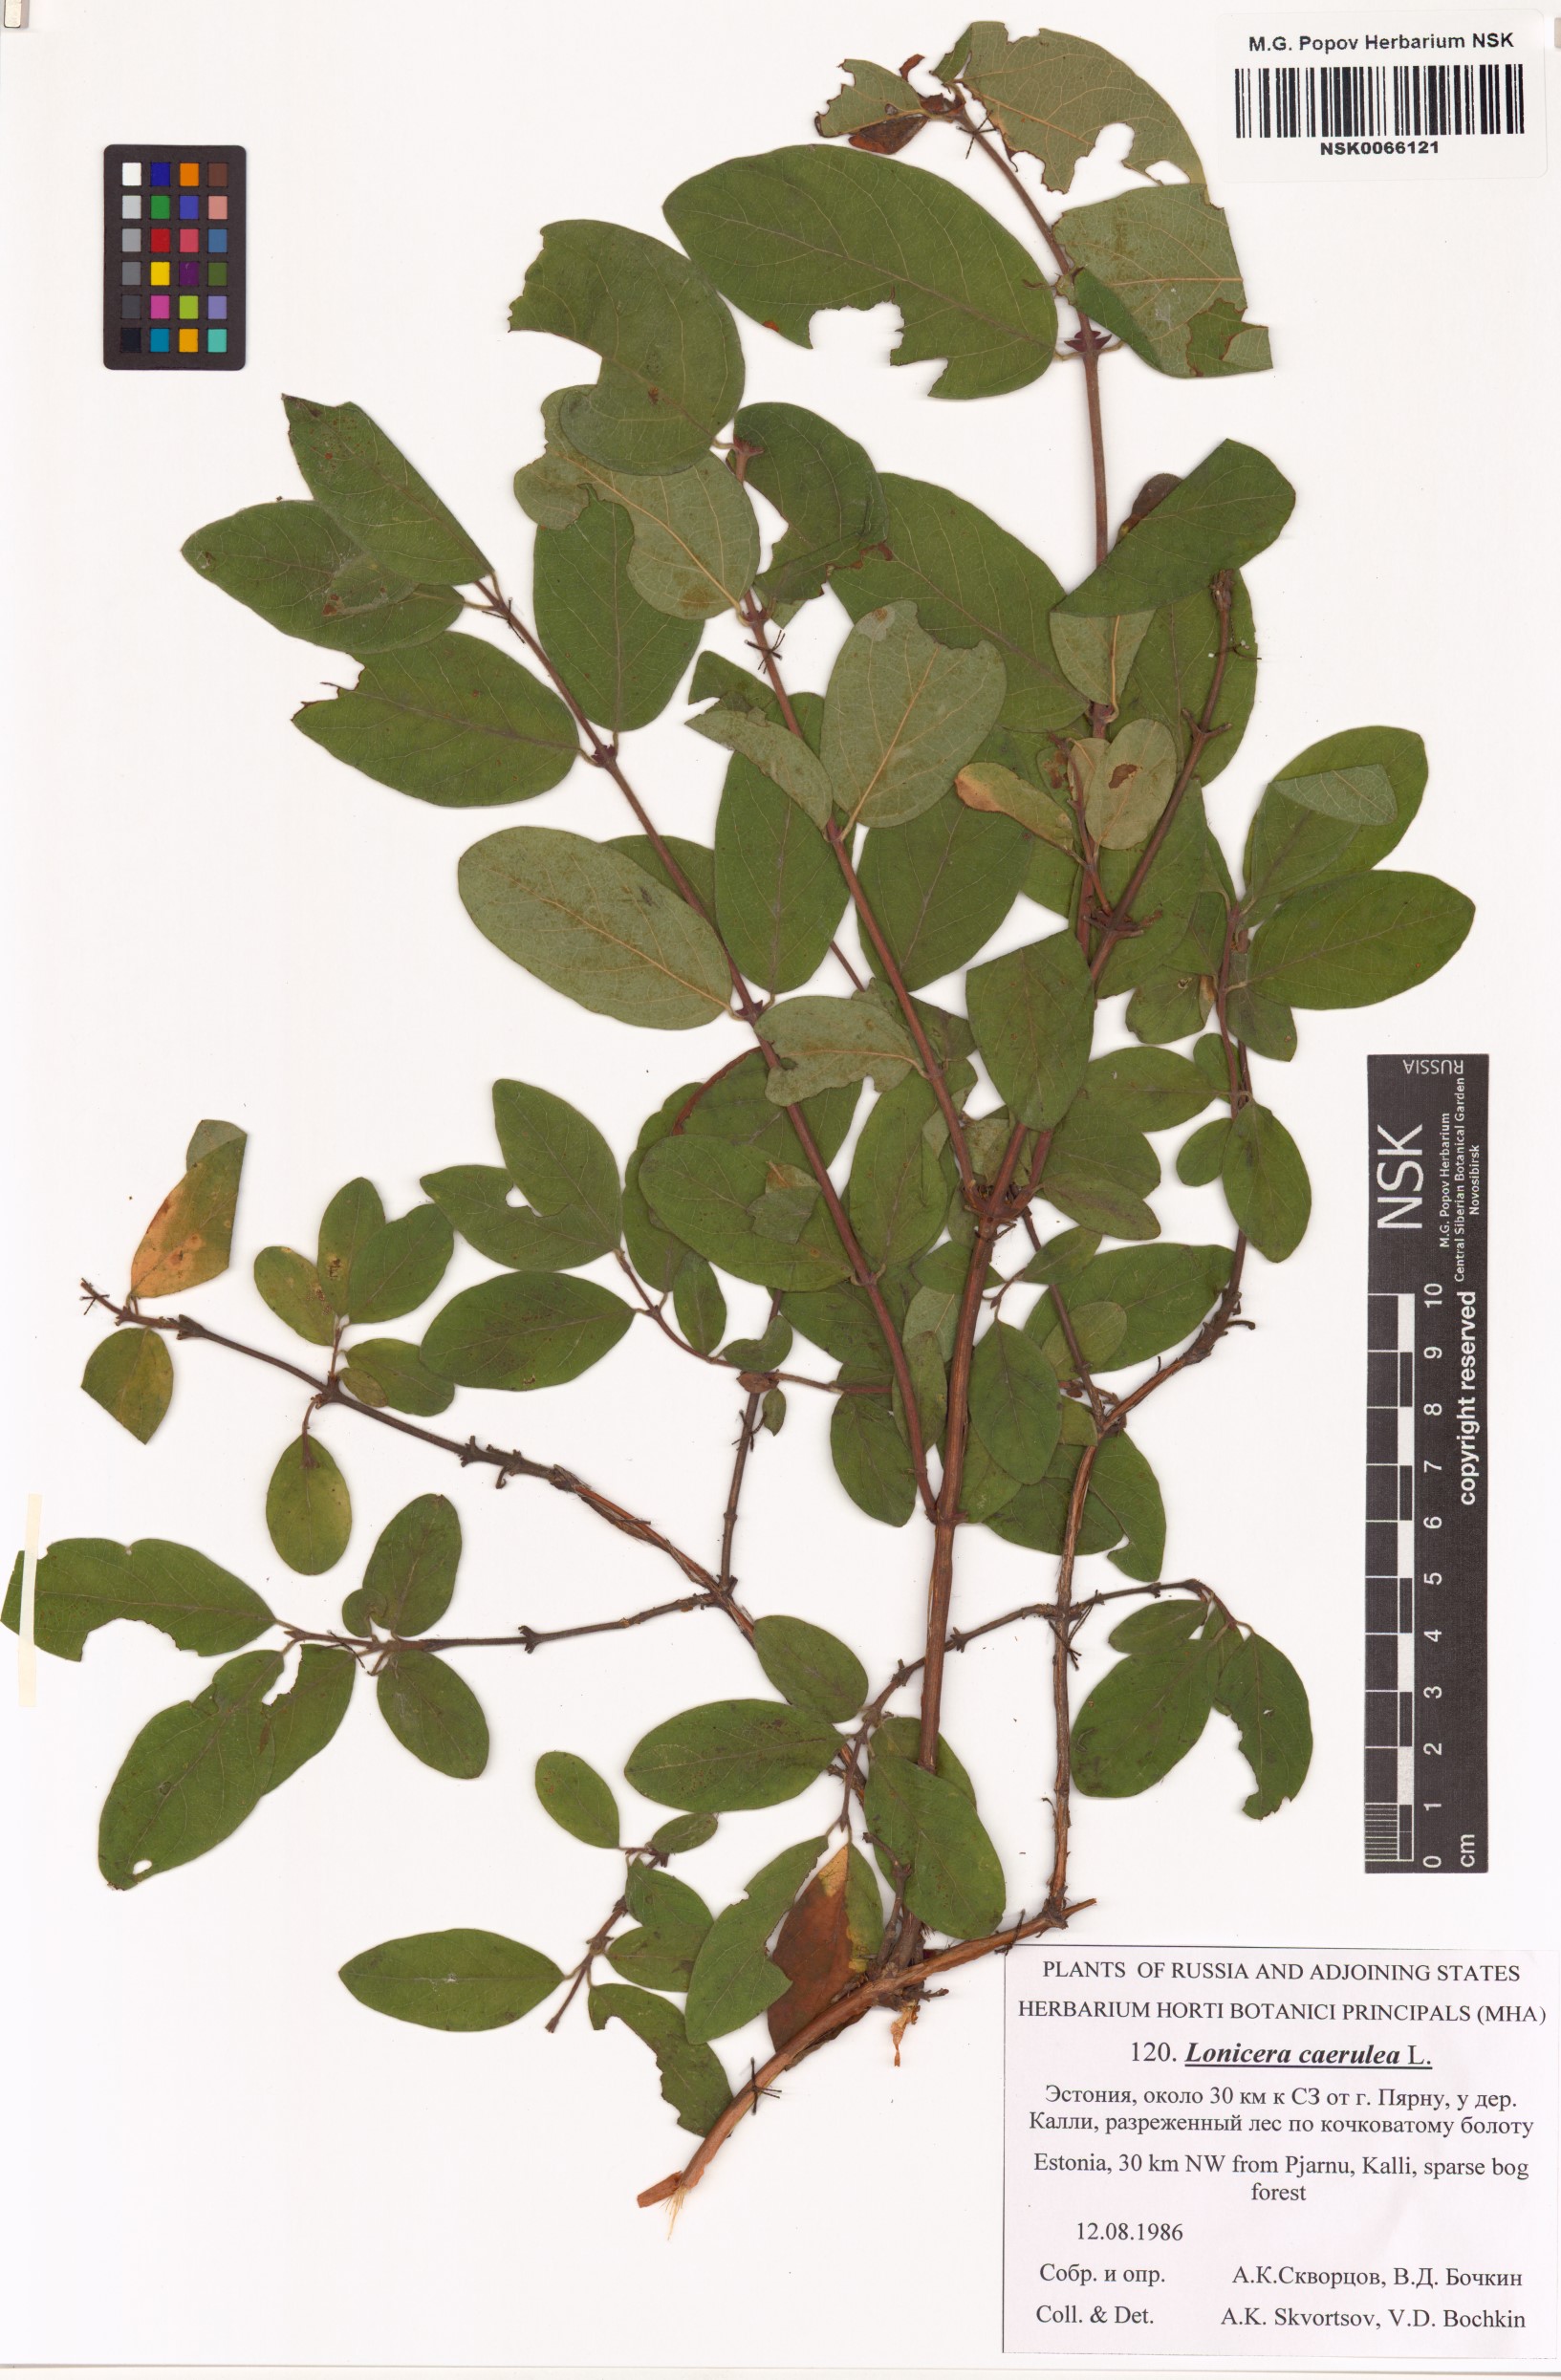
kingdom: Plantae
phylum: Tracheophyta
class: Magnoliopsida
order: Dipsacales
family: Caprifoliaceae
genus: Lonicera
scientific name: Lonicera caerulea
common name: Blue honeysuckle
